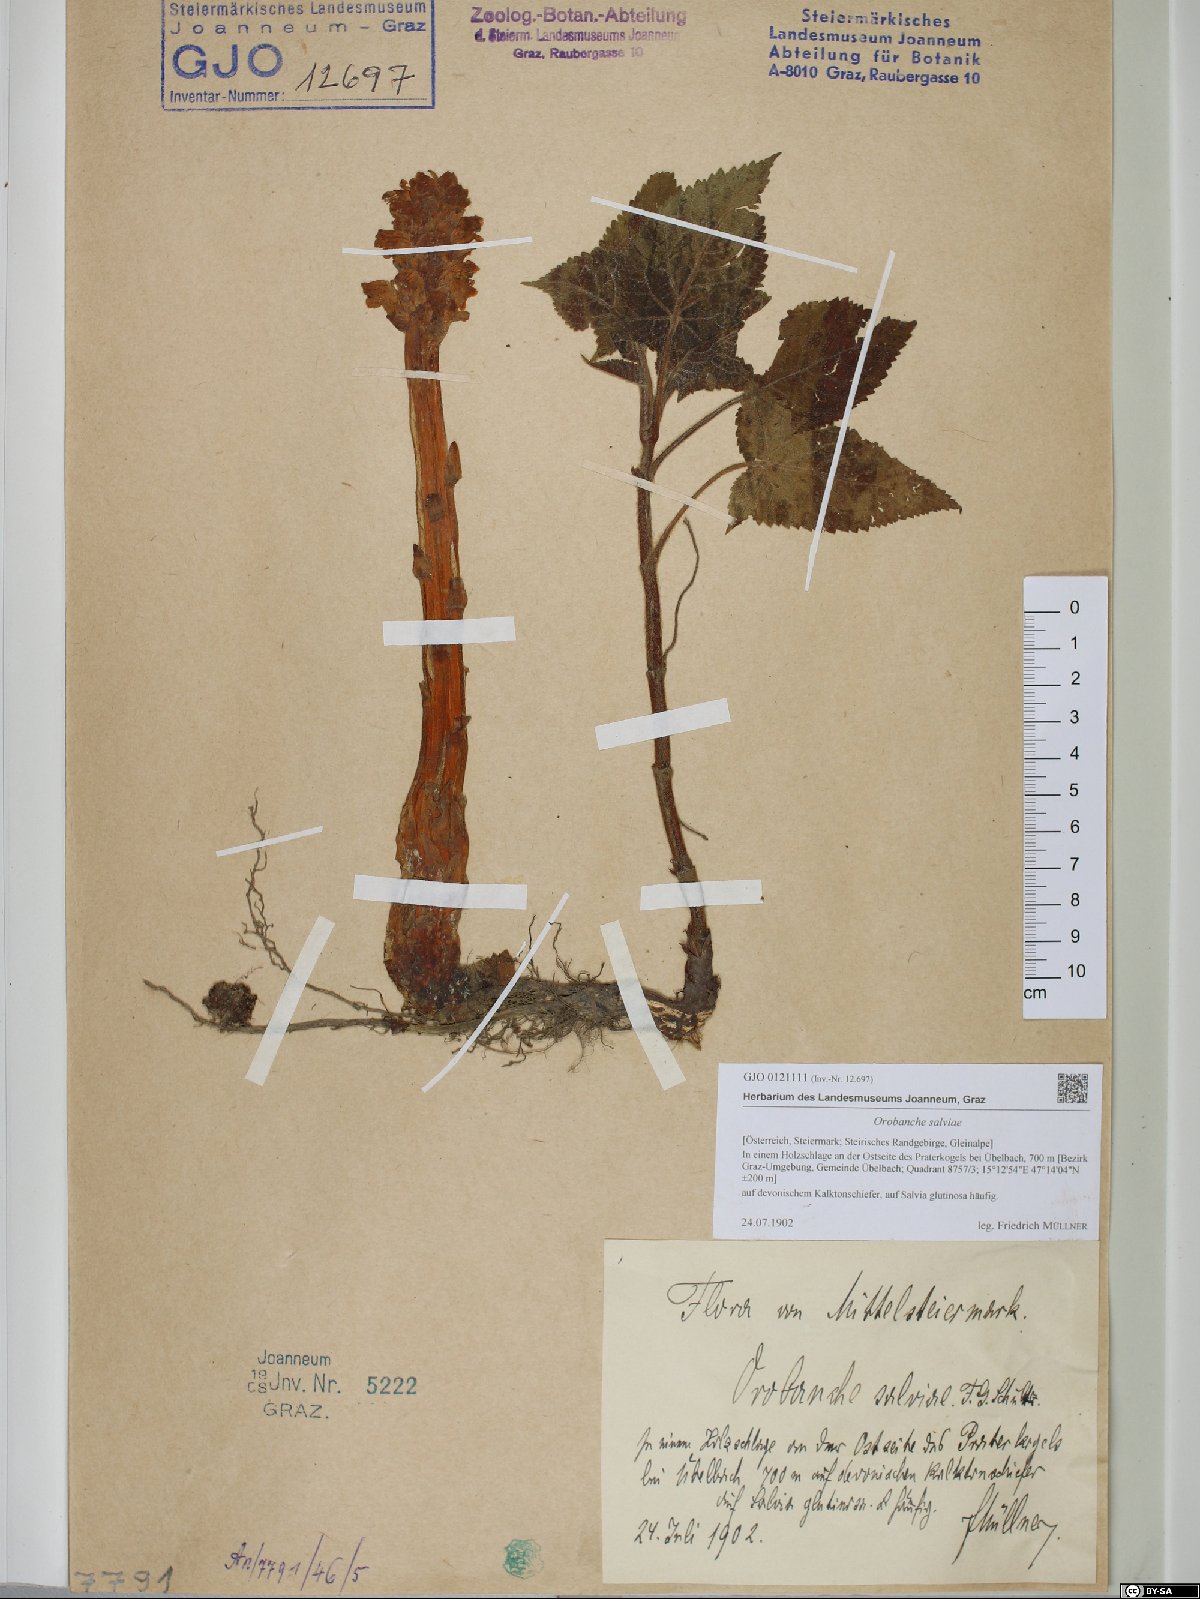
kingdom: Plantae
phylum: Tracheophyta
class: Magnoliopsida
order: Lamiales
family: Orobanchaceae
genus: Orobanche
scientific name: Orobanche salviae
